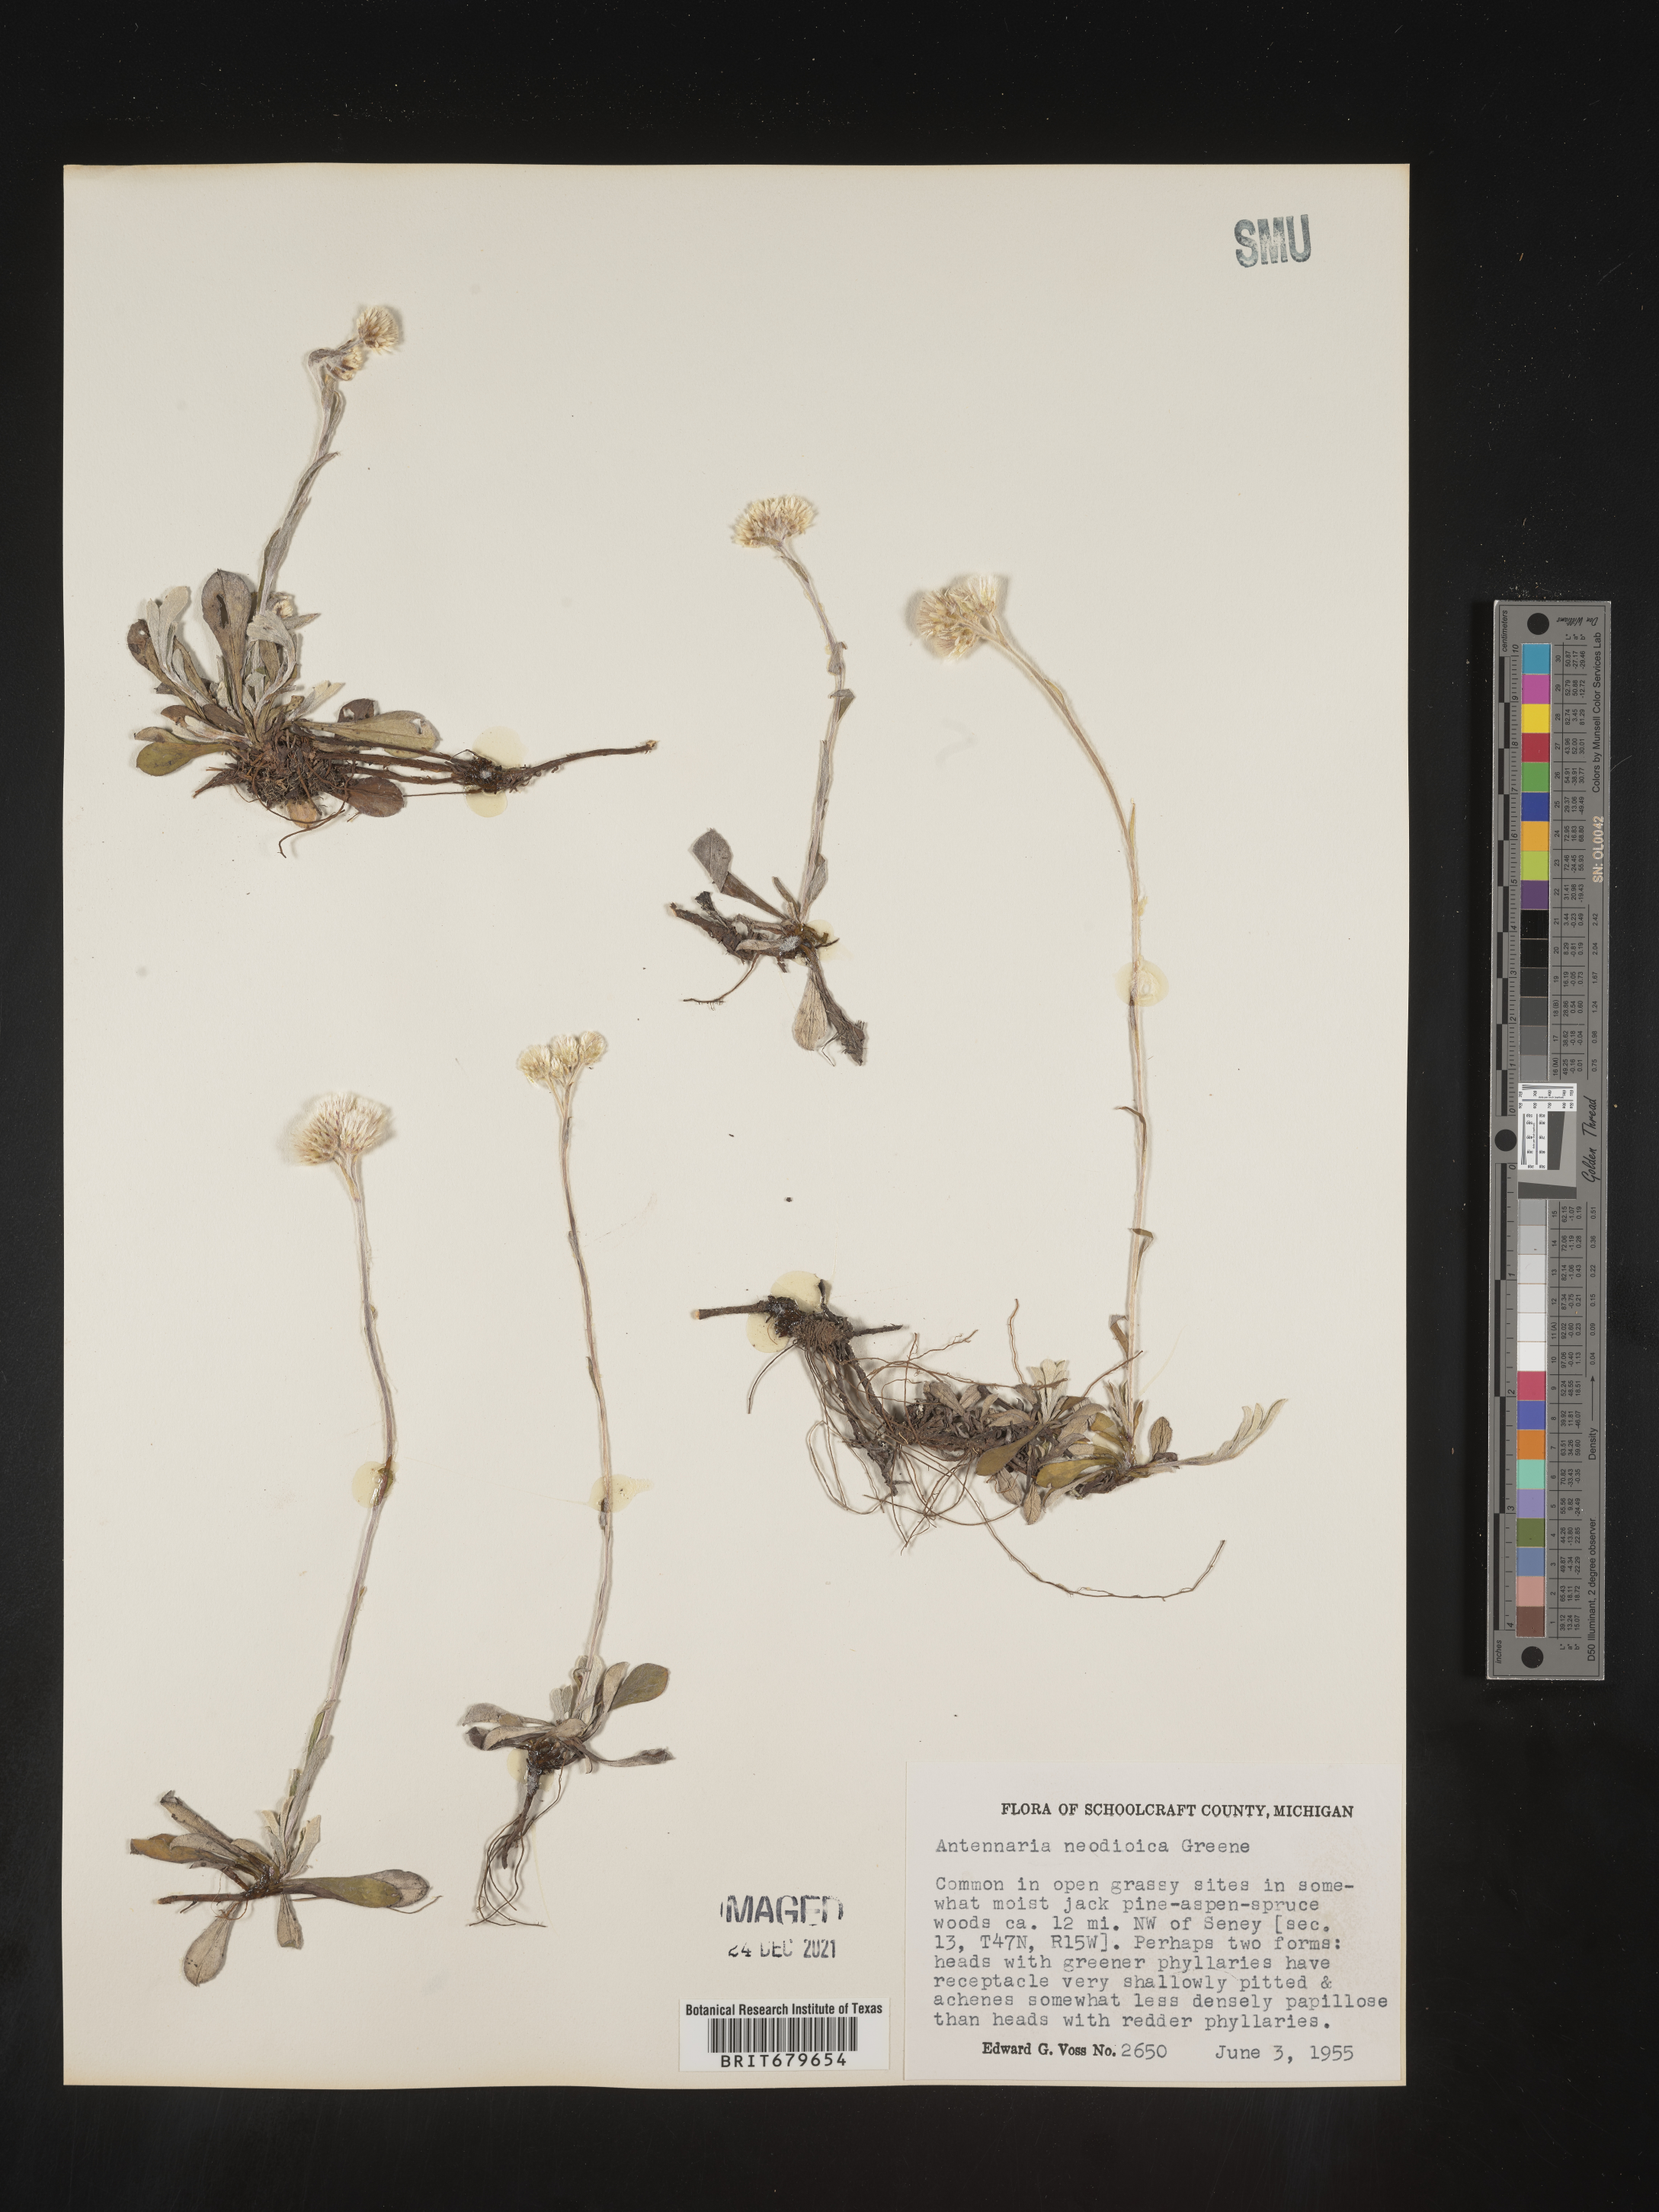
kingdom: Plantae
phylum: Tracheophyta
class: Magnoliopsida
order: Asterales
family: Asteraceae
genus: Antennaria
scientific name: Antennaria howellii
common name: Howell's pussytoes
